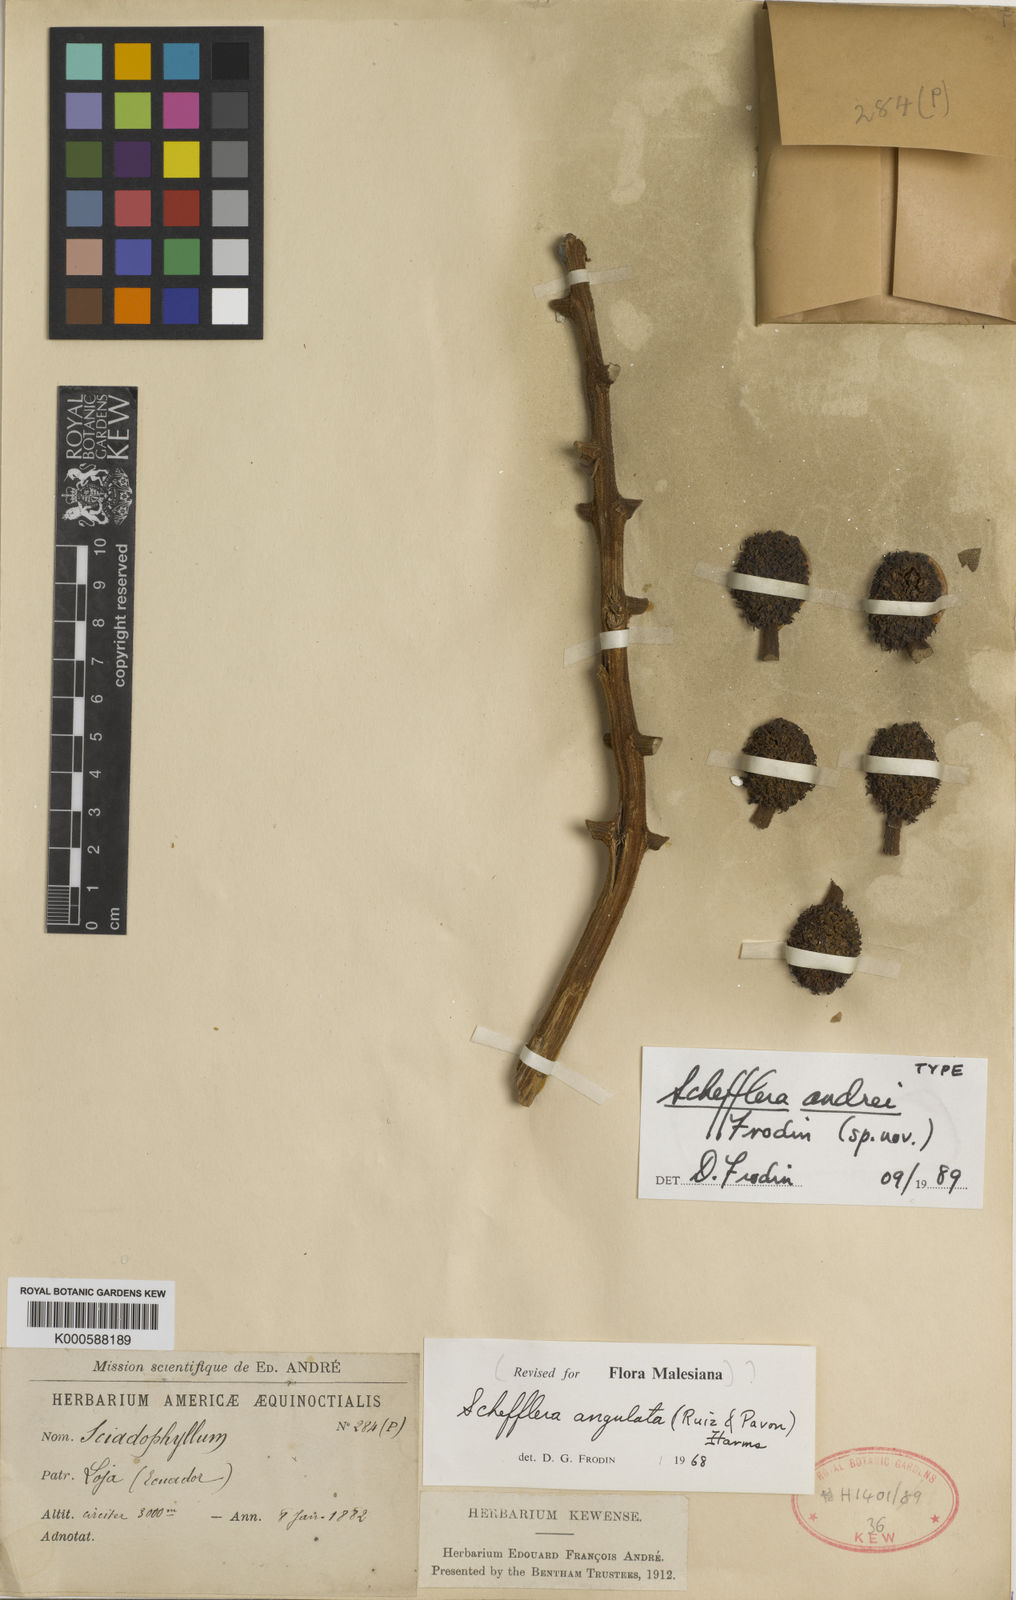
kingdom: Plantae
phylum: Tracheophyta
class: Magnoliopsida
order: Apiales
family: Araliaceae
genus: Schefflera
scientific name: Schefflera
